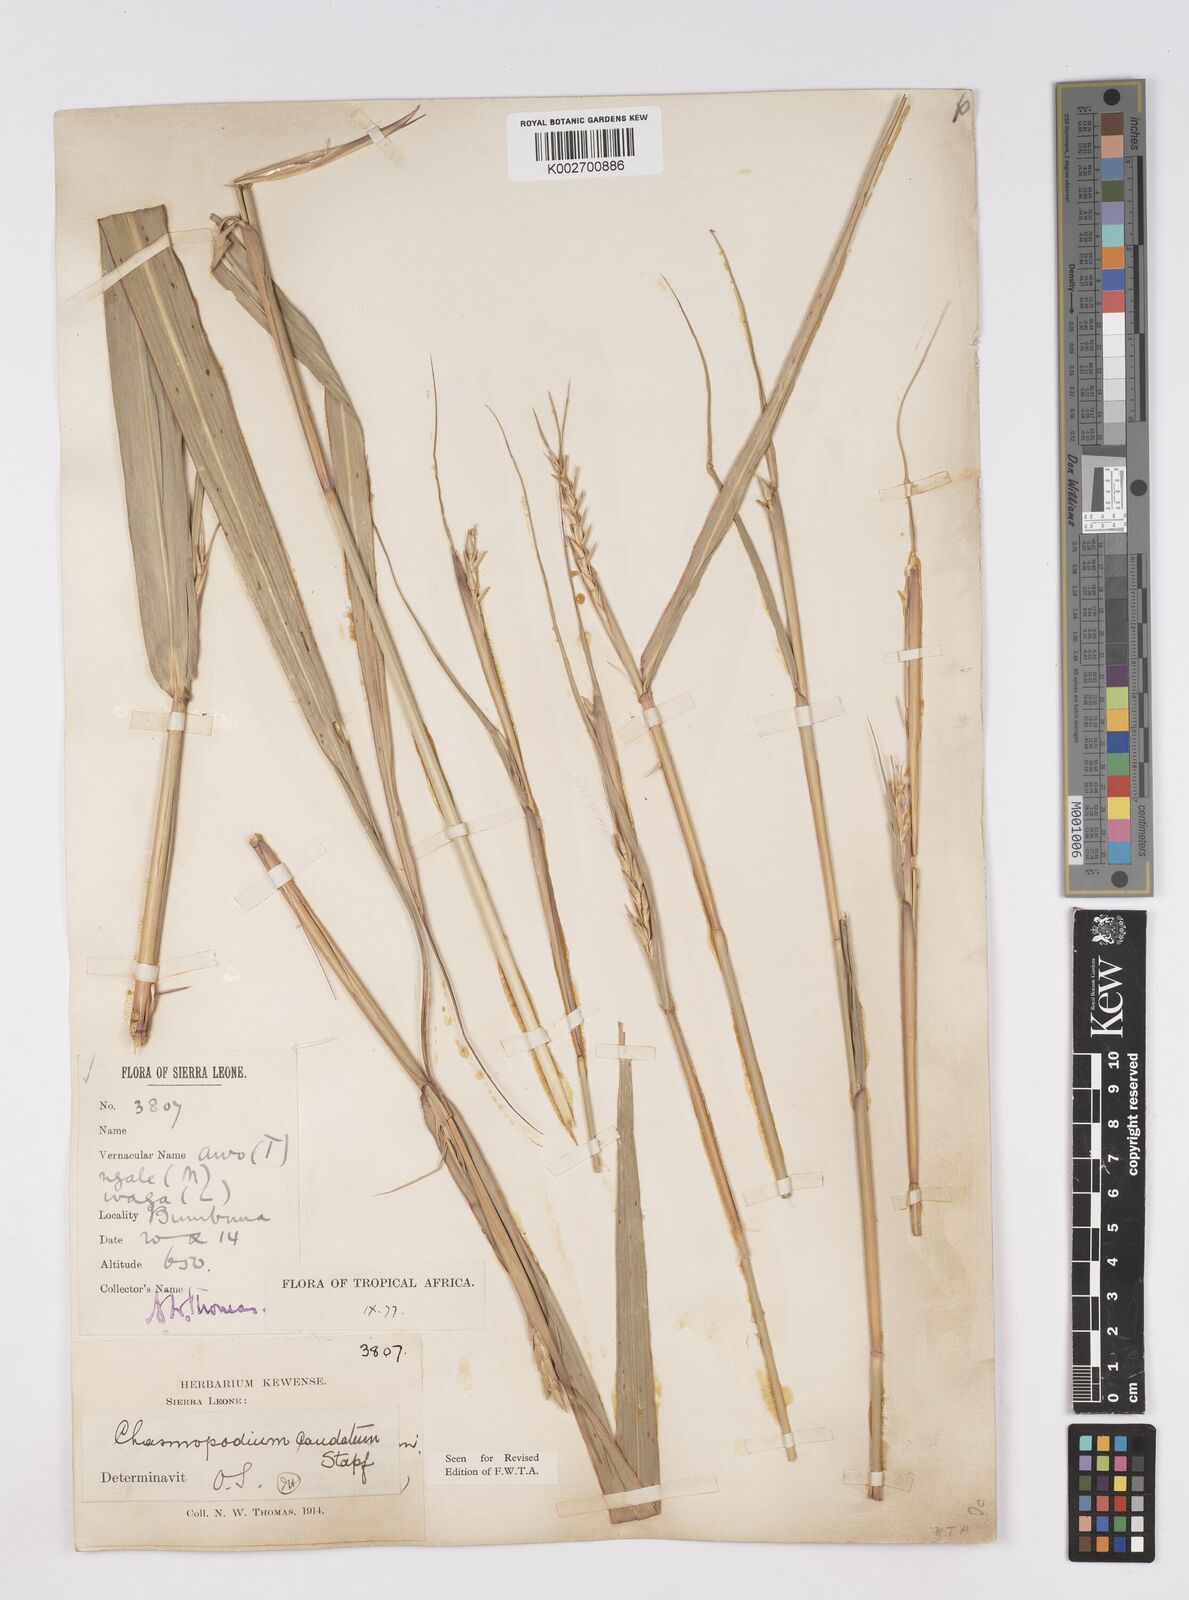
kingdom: Plantae
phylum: Tracheophyta
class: Liliopsida
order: Poales
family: Poaceae
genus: Chasmopodium
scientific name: Chasmopodium caudatum
